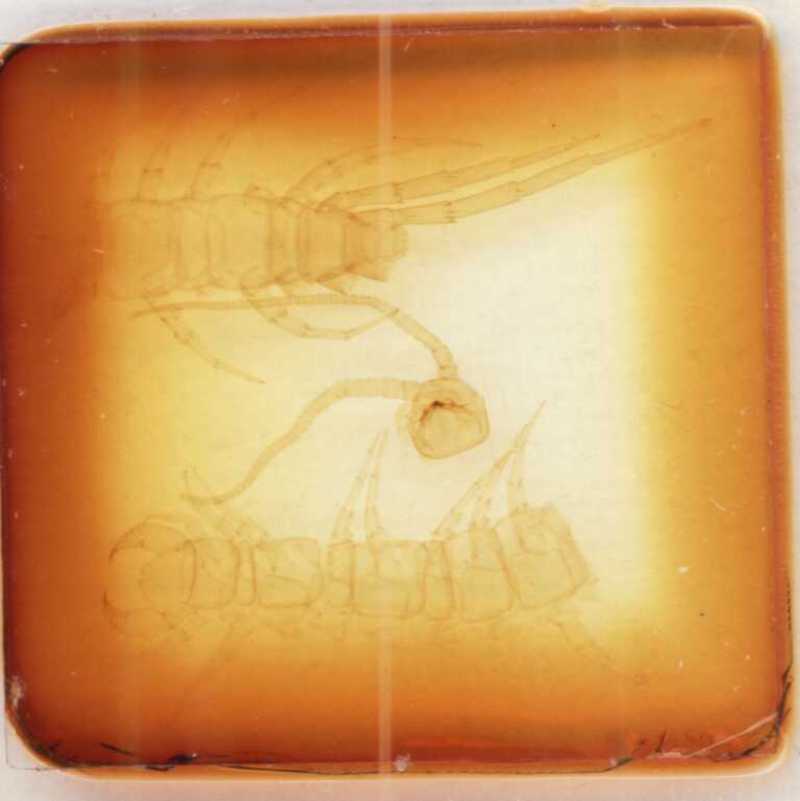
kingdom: Animalia
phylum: Arthropoda
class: Chilopoda
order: Lithobiomorpha
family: Lithobiidae
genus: Lithobius
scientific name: Lithobius palmarum
